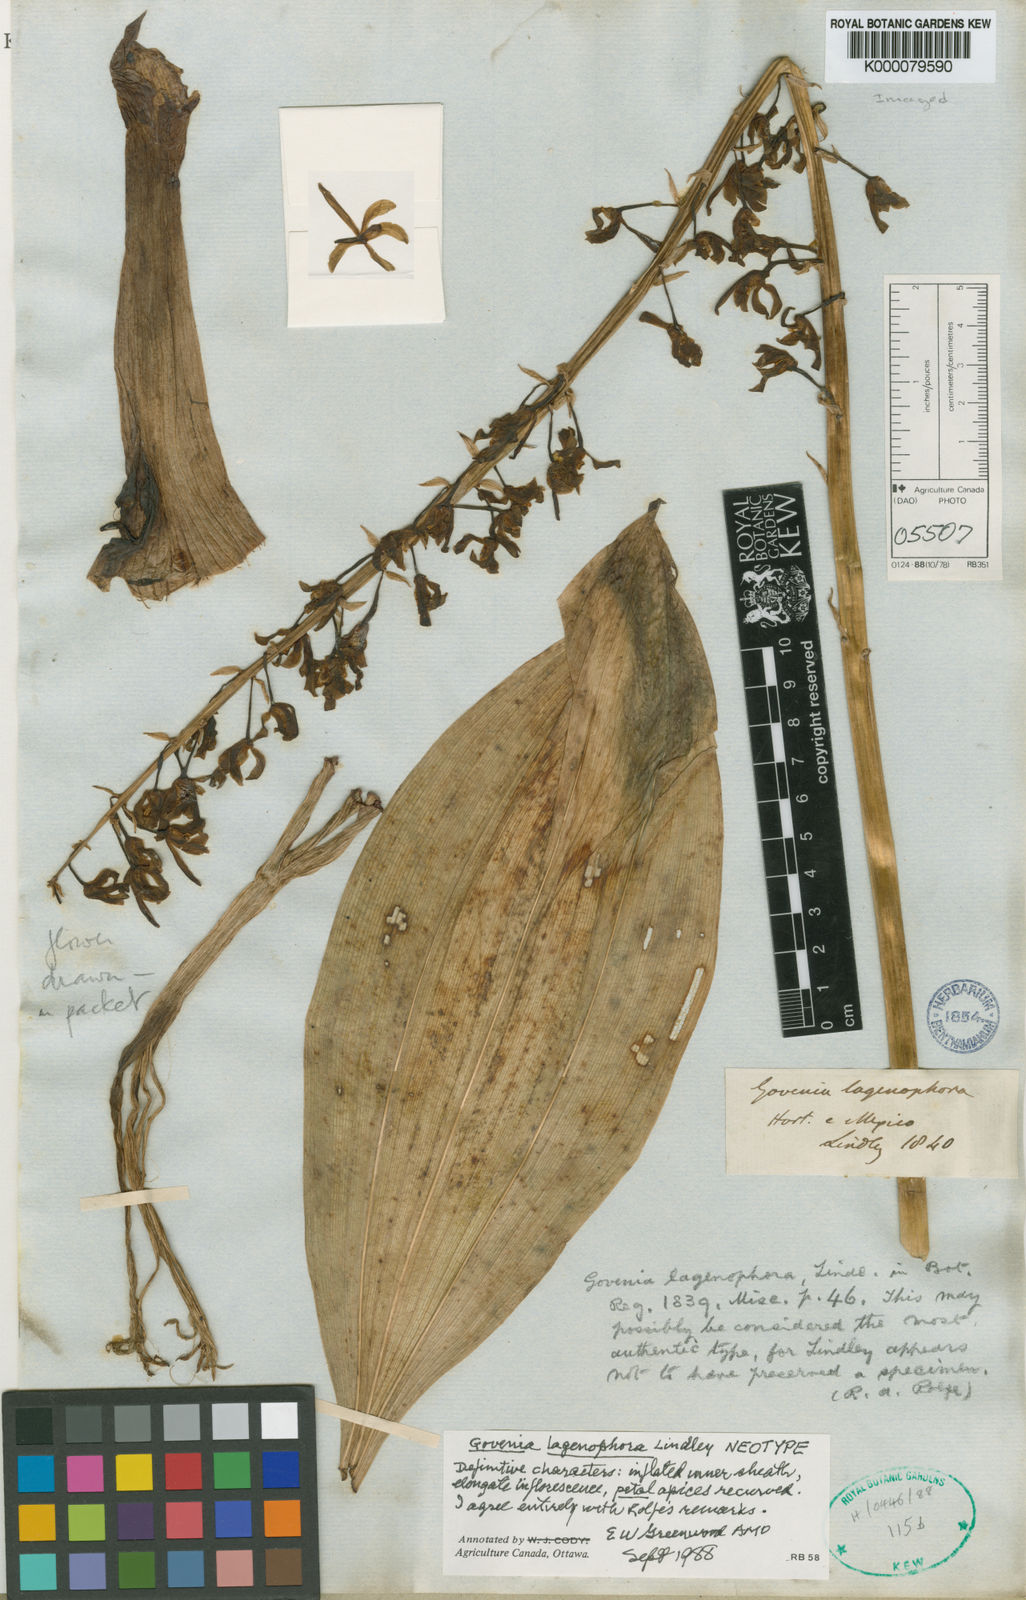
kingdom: Plantae
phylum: Tracheophyta
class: Liliopsida
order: Asparagales
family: Orchidaceae
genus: Govenia
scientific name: Govenia lagenophora
